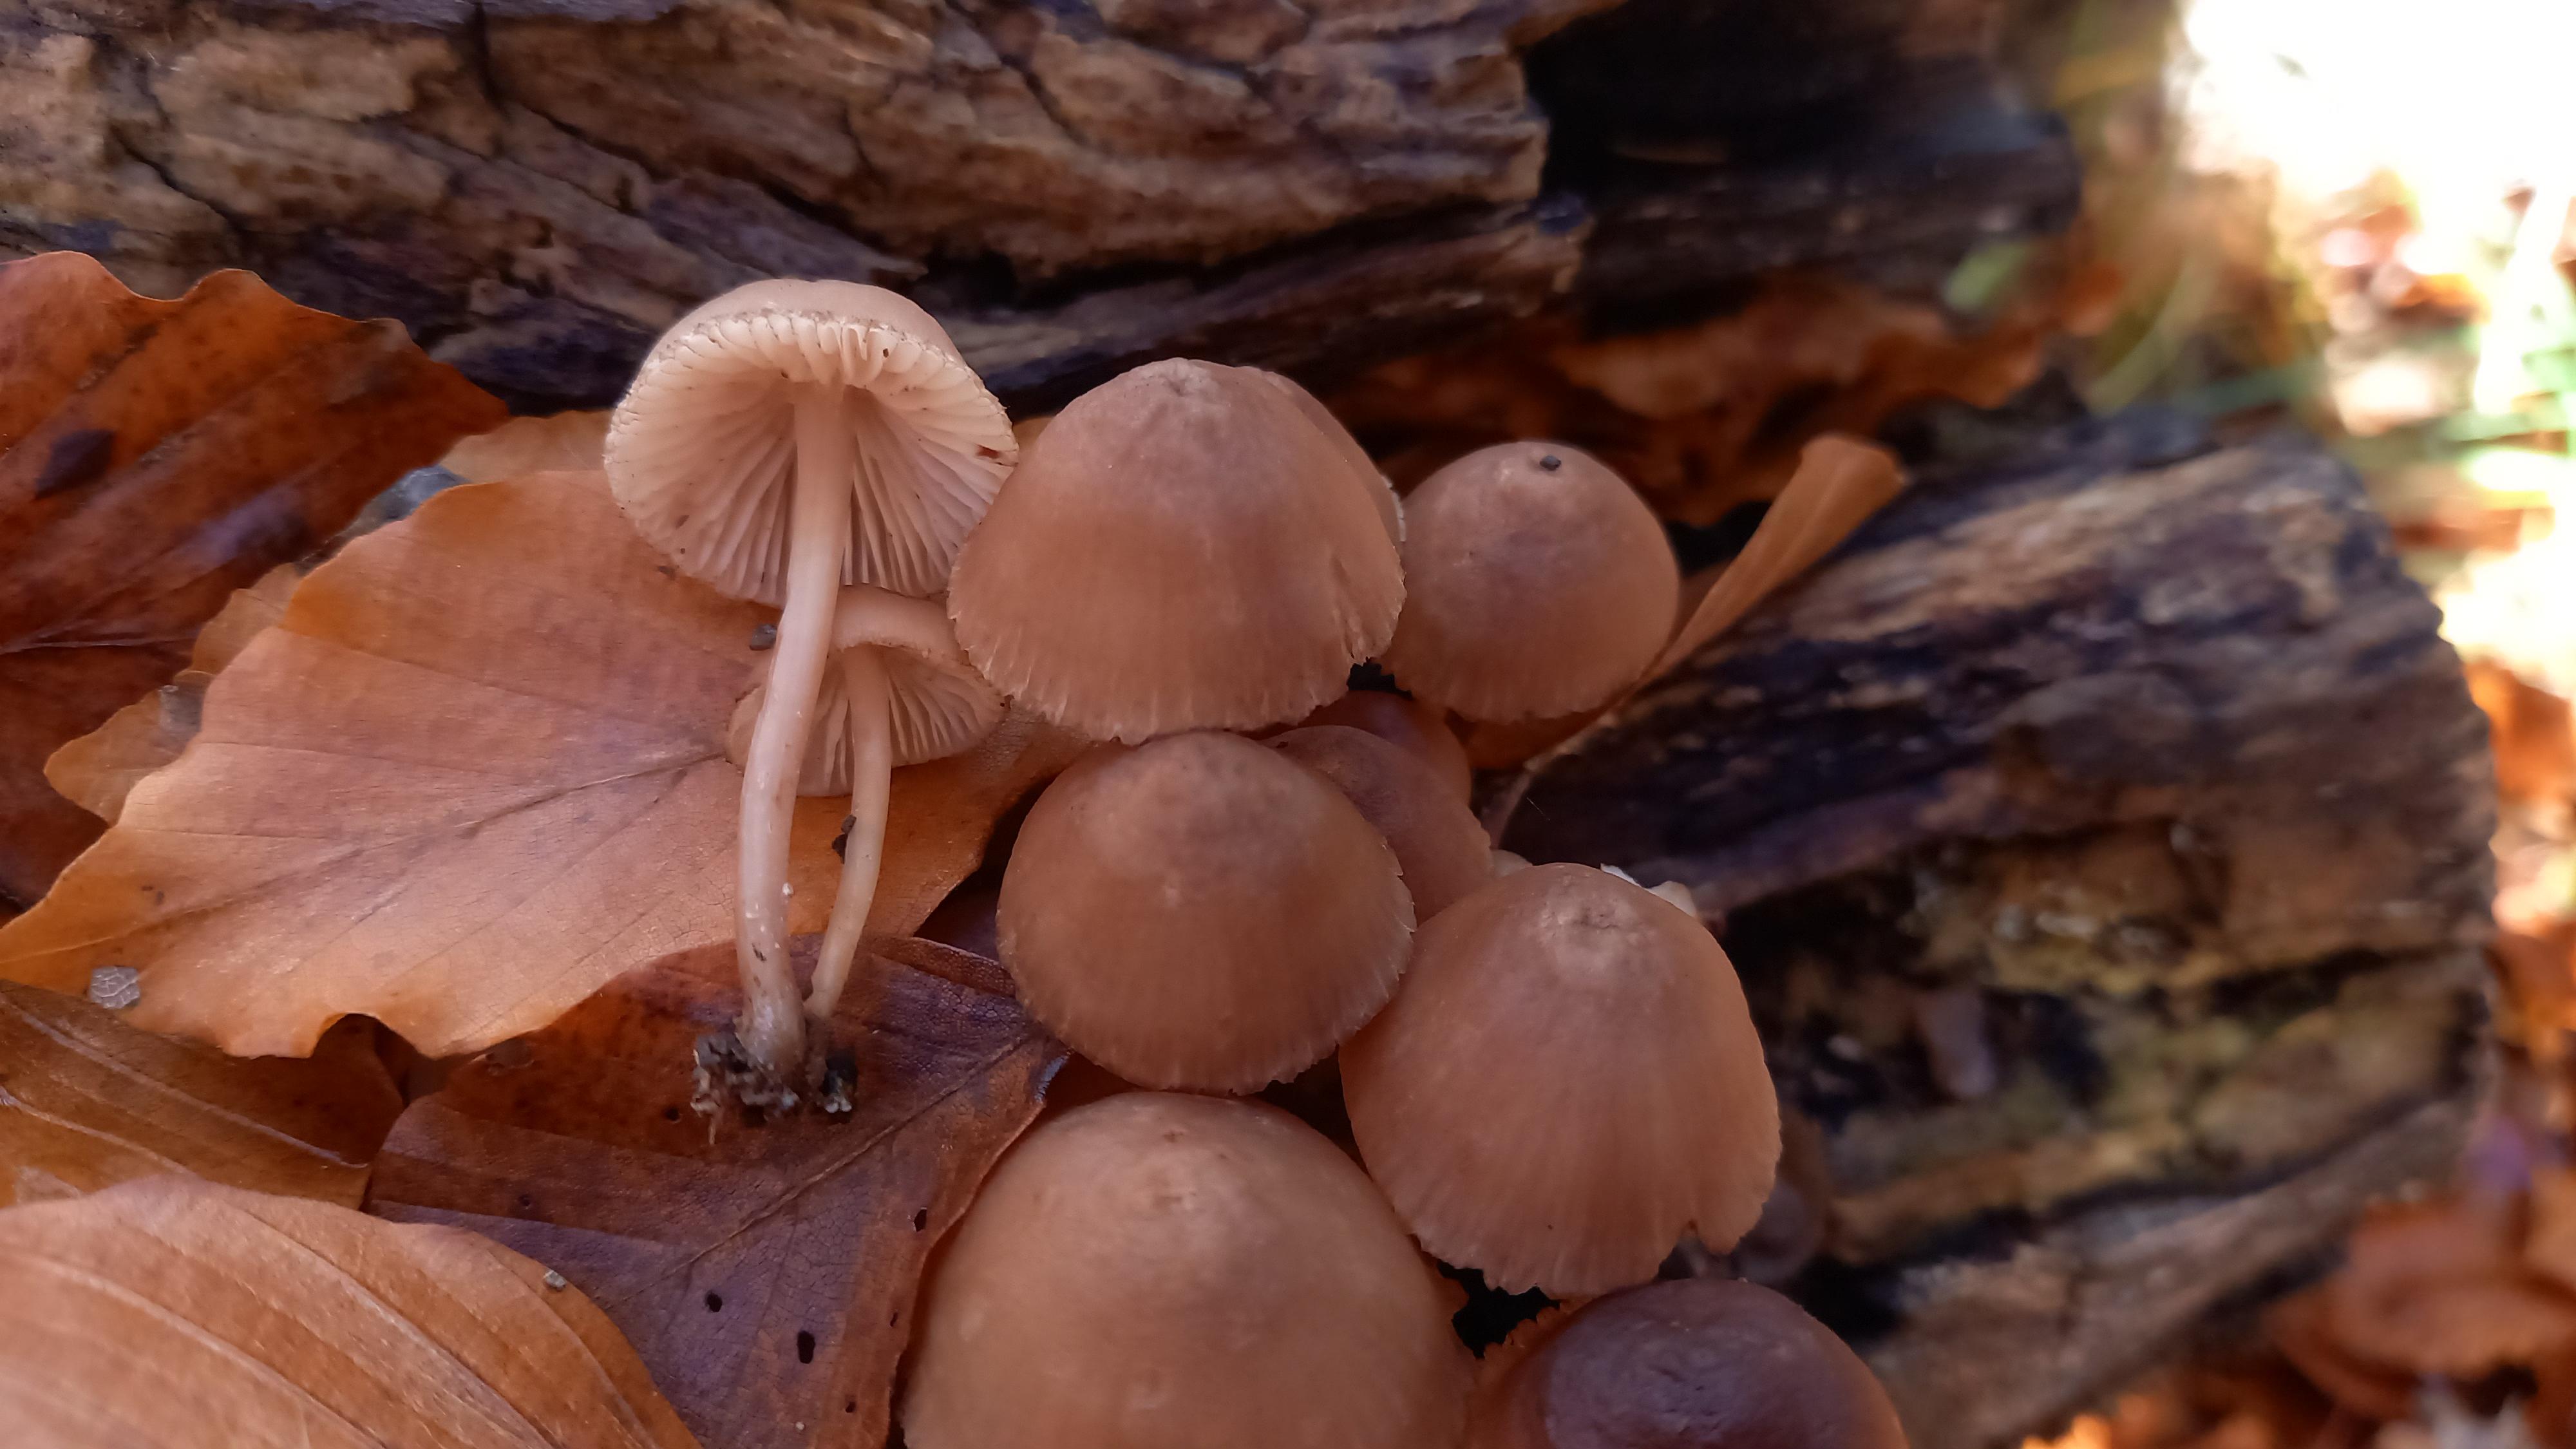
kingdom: Fungi
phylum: Basidiomycota
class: Agaricomycetes
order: Agaricales
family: Mycenaceae
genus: Mycena
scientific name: Mycena haematopus
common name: blødende huesvamp
